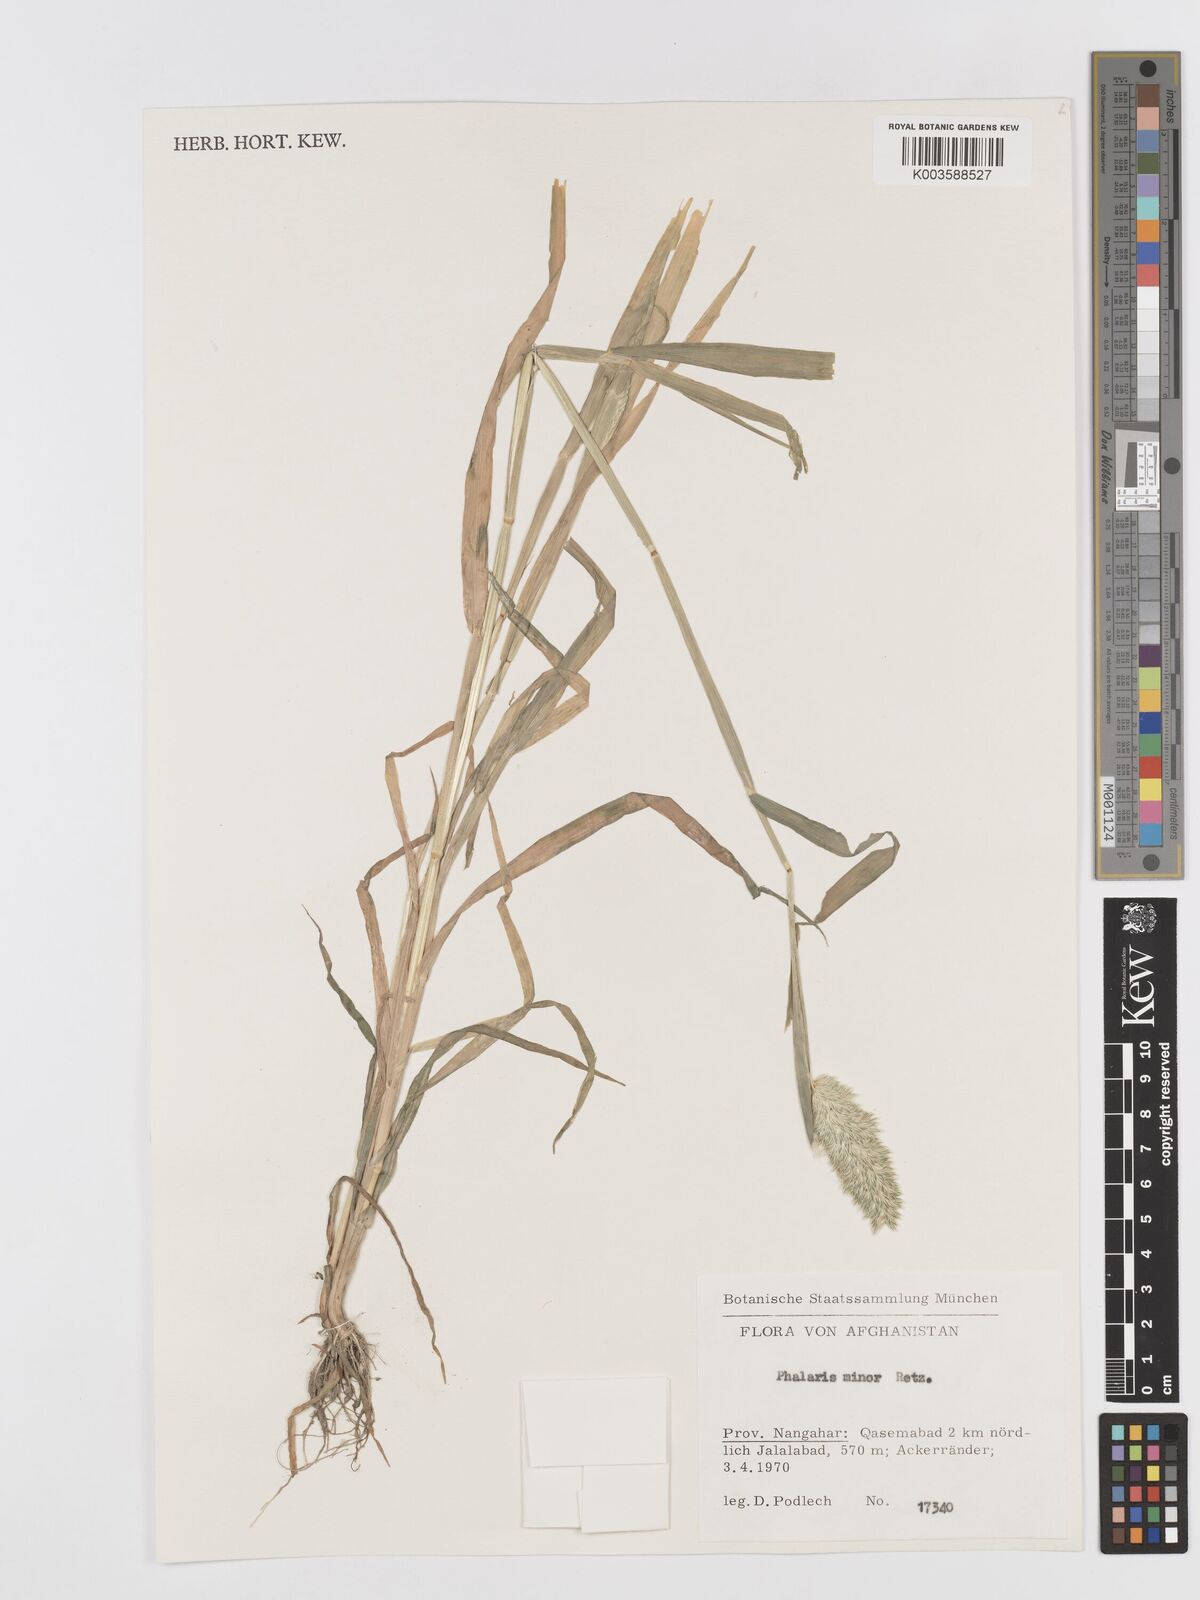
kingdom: Plantae
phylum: Tracheophyta
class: Liliopsida
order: Poales
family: Poaceae
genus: Phalaris
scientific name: Phalaris minor
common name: Littleseed canarygrass
